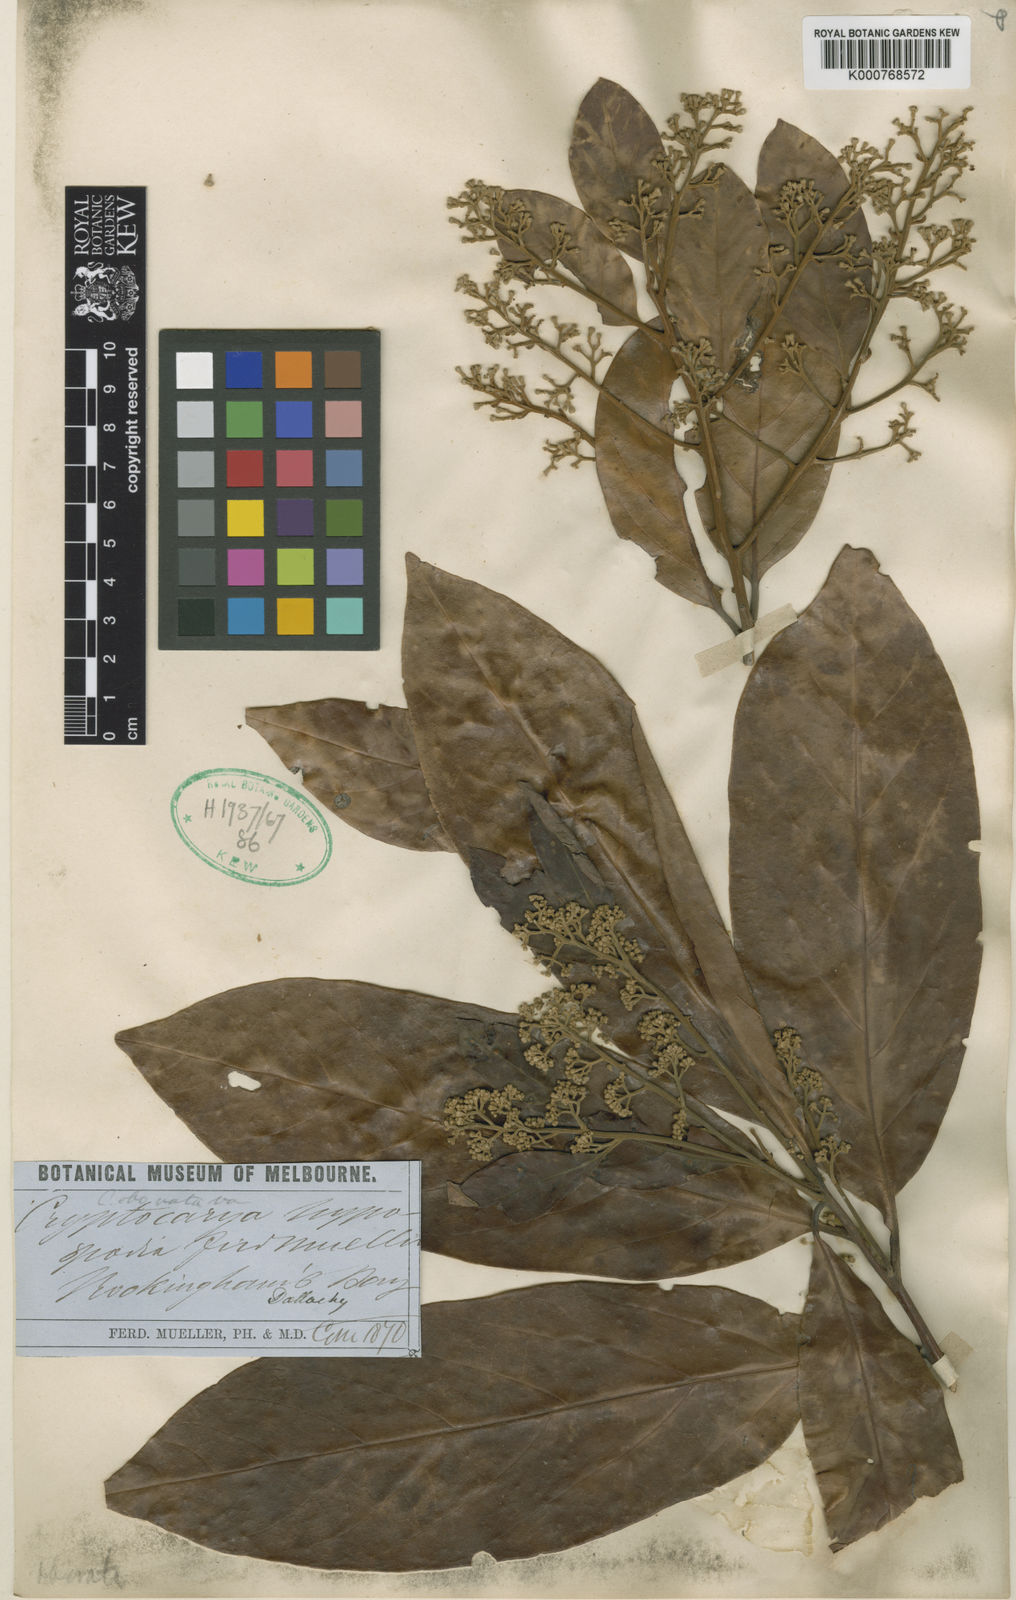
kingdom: Plantae
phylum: Tracheophyta
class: Magnoliopsida
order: Laurales
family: Lauraceae
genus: Cryptocarya
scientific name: Cryptocarya hypospodia
